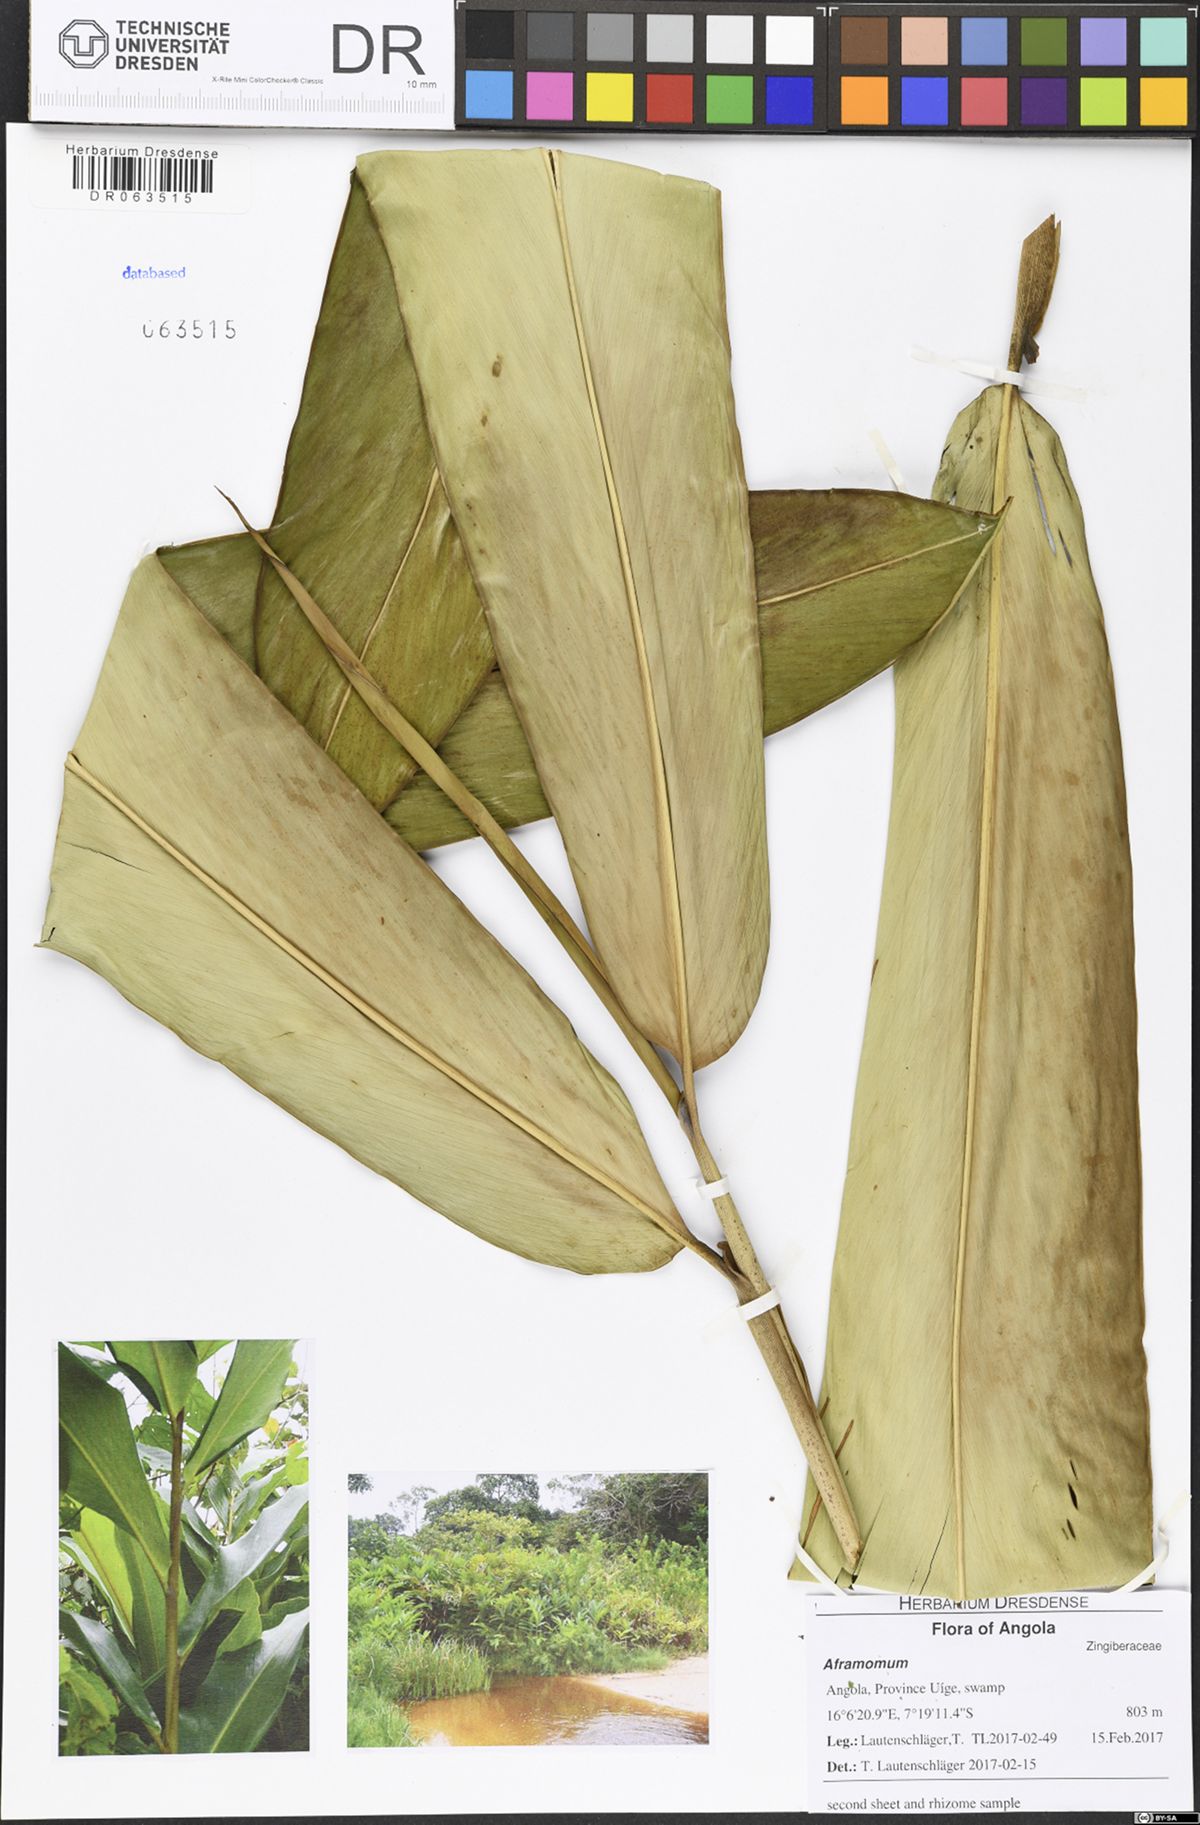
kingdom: Plantae
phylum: Tracheophyta
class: Liliopsida
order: Zingiberales
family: Zingiberaceae
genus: Aframomum
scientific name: Aframomum
